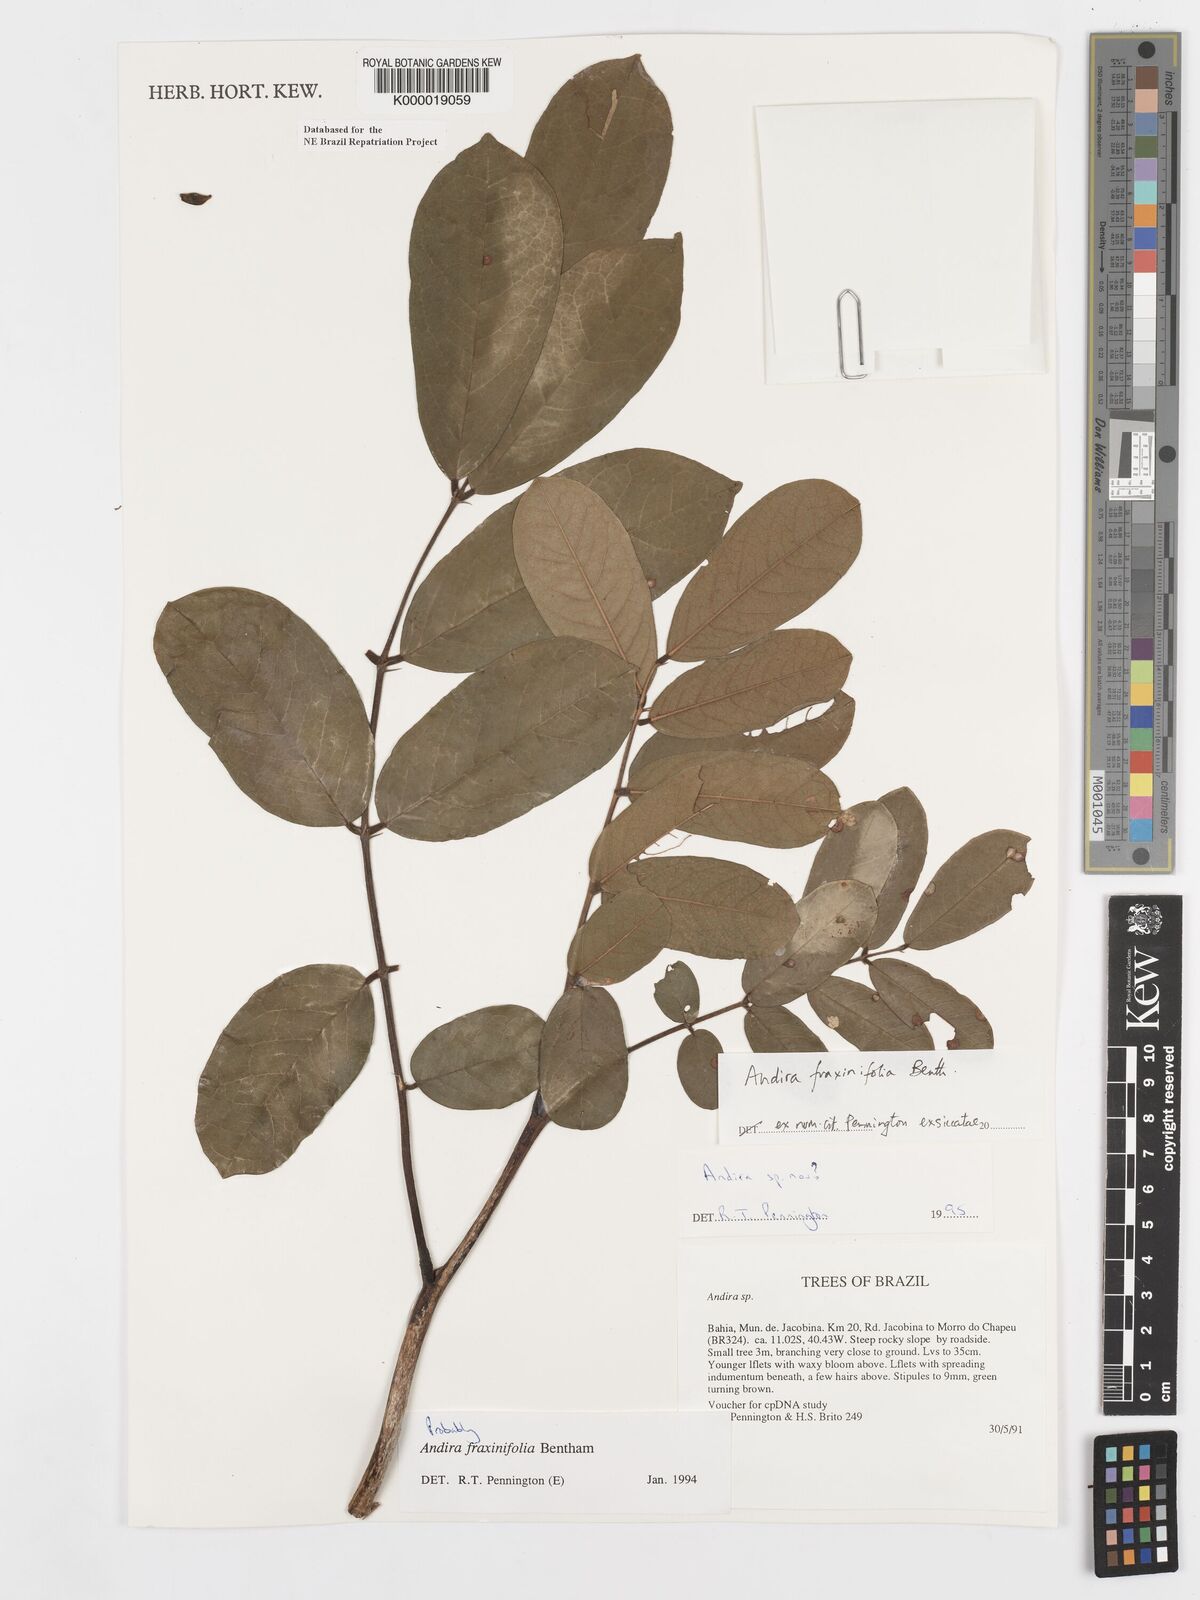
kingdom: Plantae
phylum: Tracheophyta
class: Magnoliopsida
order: Fabales
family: Fabaceae
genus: Andira
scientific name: Andira fraxinifolia
